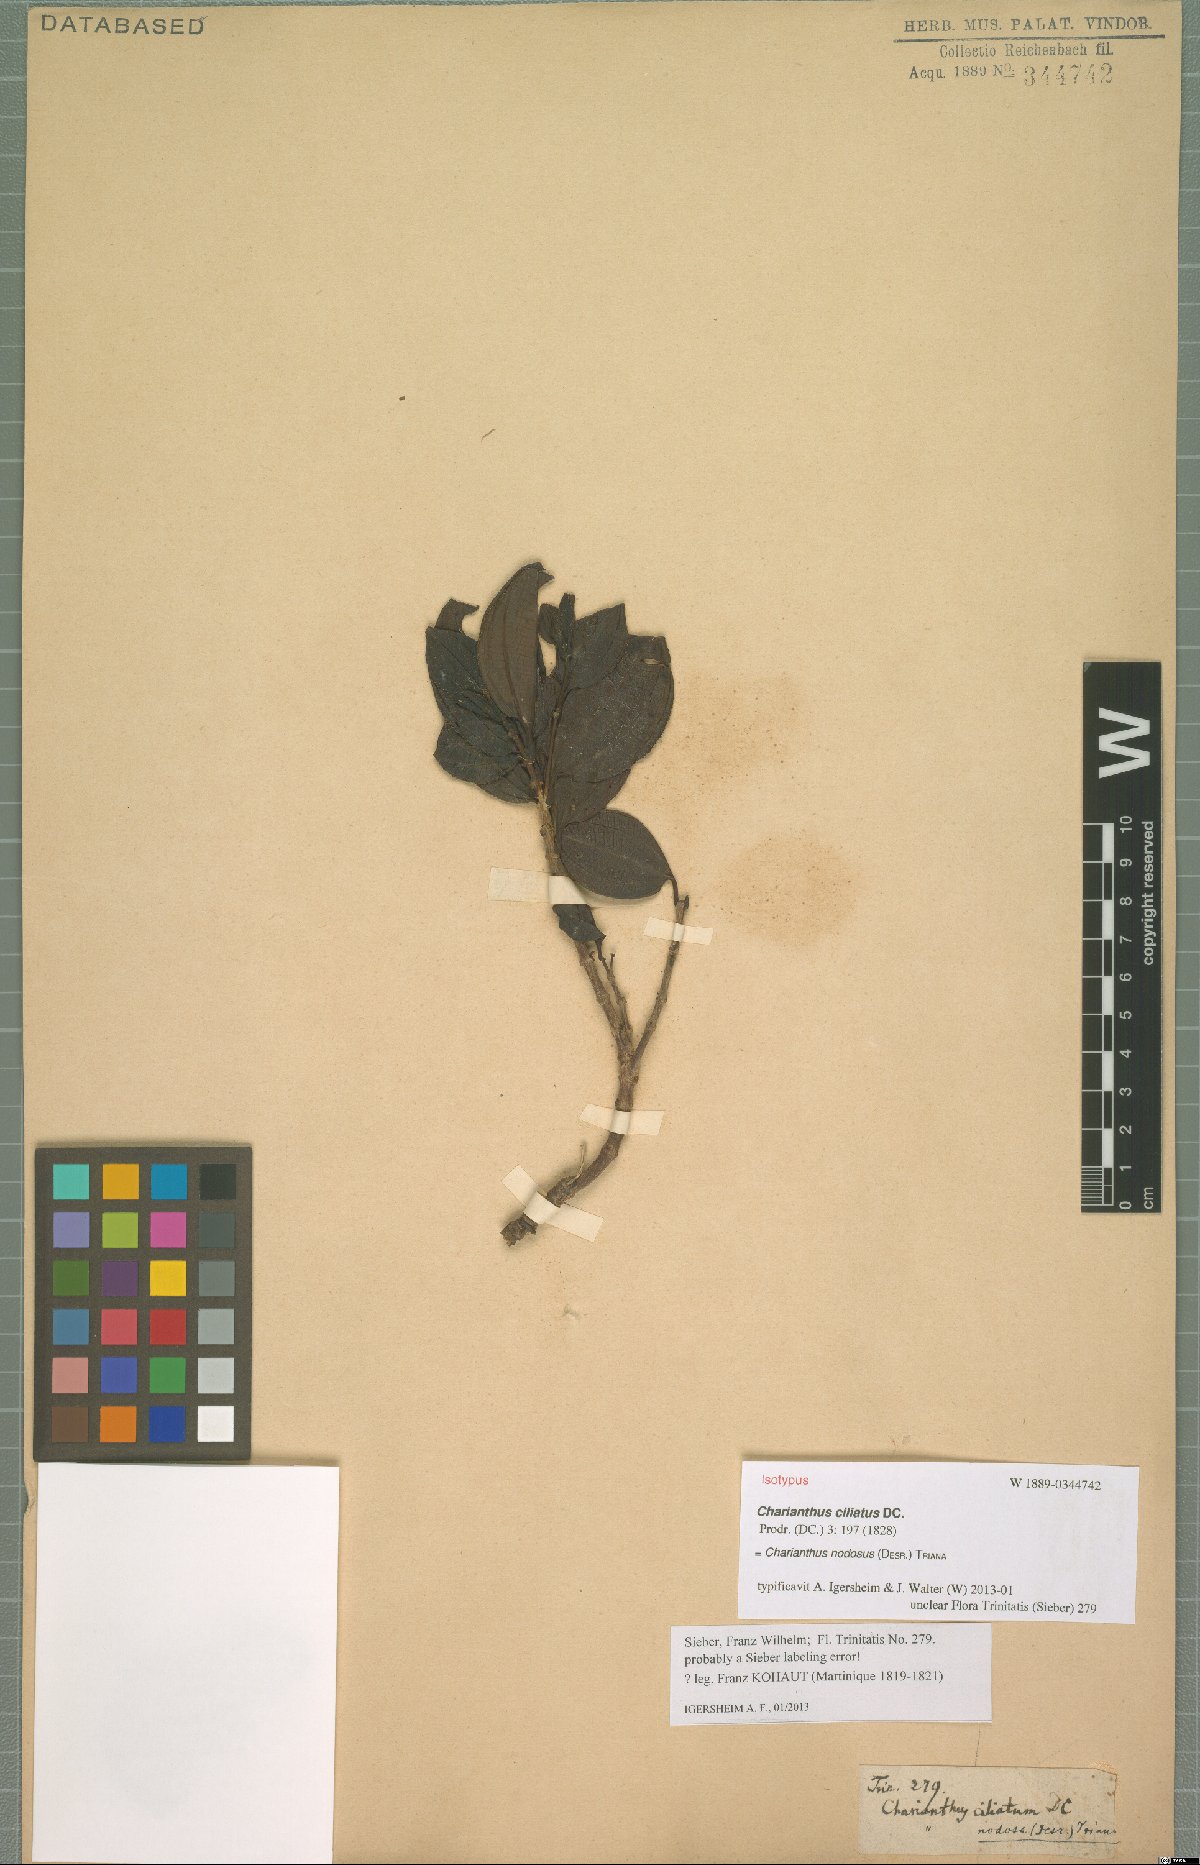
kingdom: Plantae
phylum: Tracheophyta
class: Magnoliopsida
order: Myrtales
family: Melastomataceae
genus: Miconia
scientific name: Miconia leblondii
